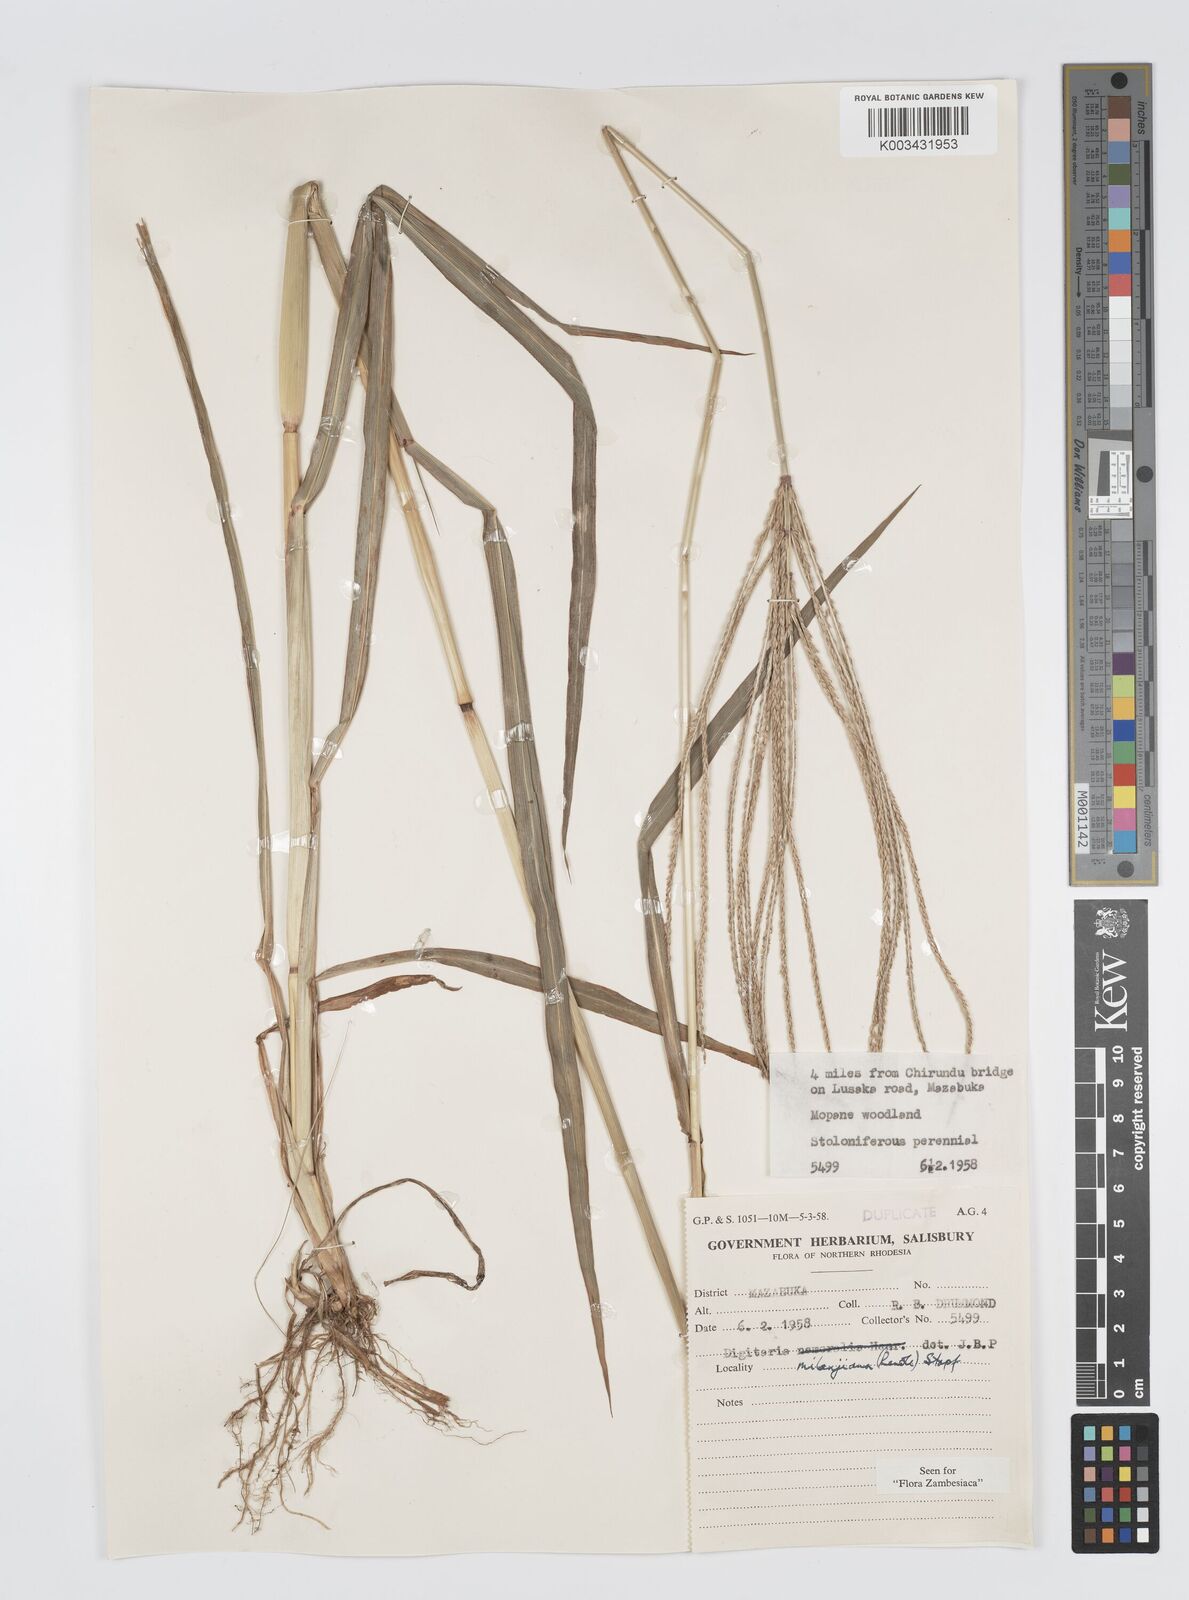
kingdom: Plantae
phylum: Tracheophyta
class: Liliopsida
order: Poales
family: Poaceae
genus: Digitaria
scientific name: Digitaria milanjiana
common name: Madagascar crabgrass
